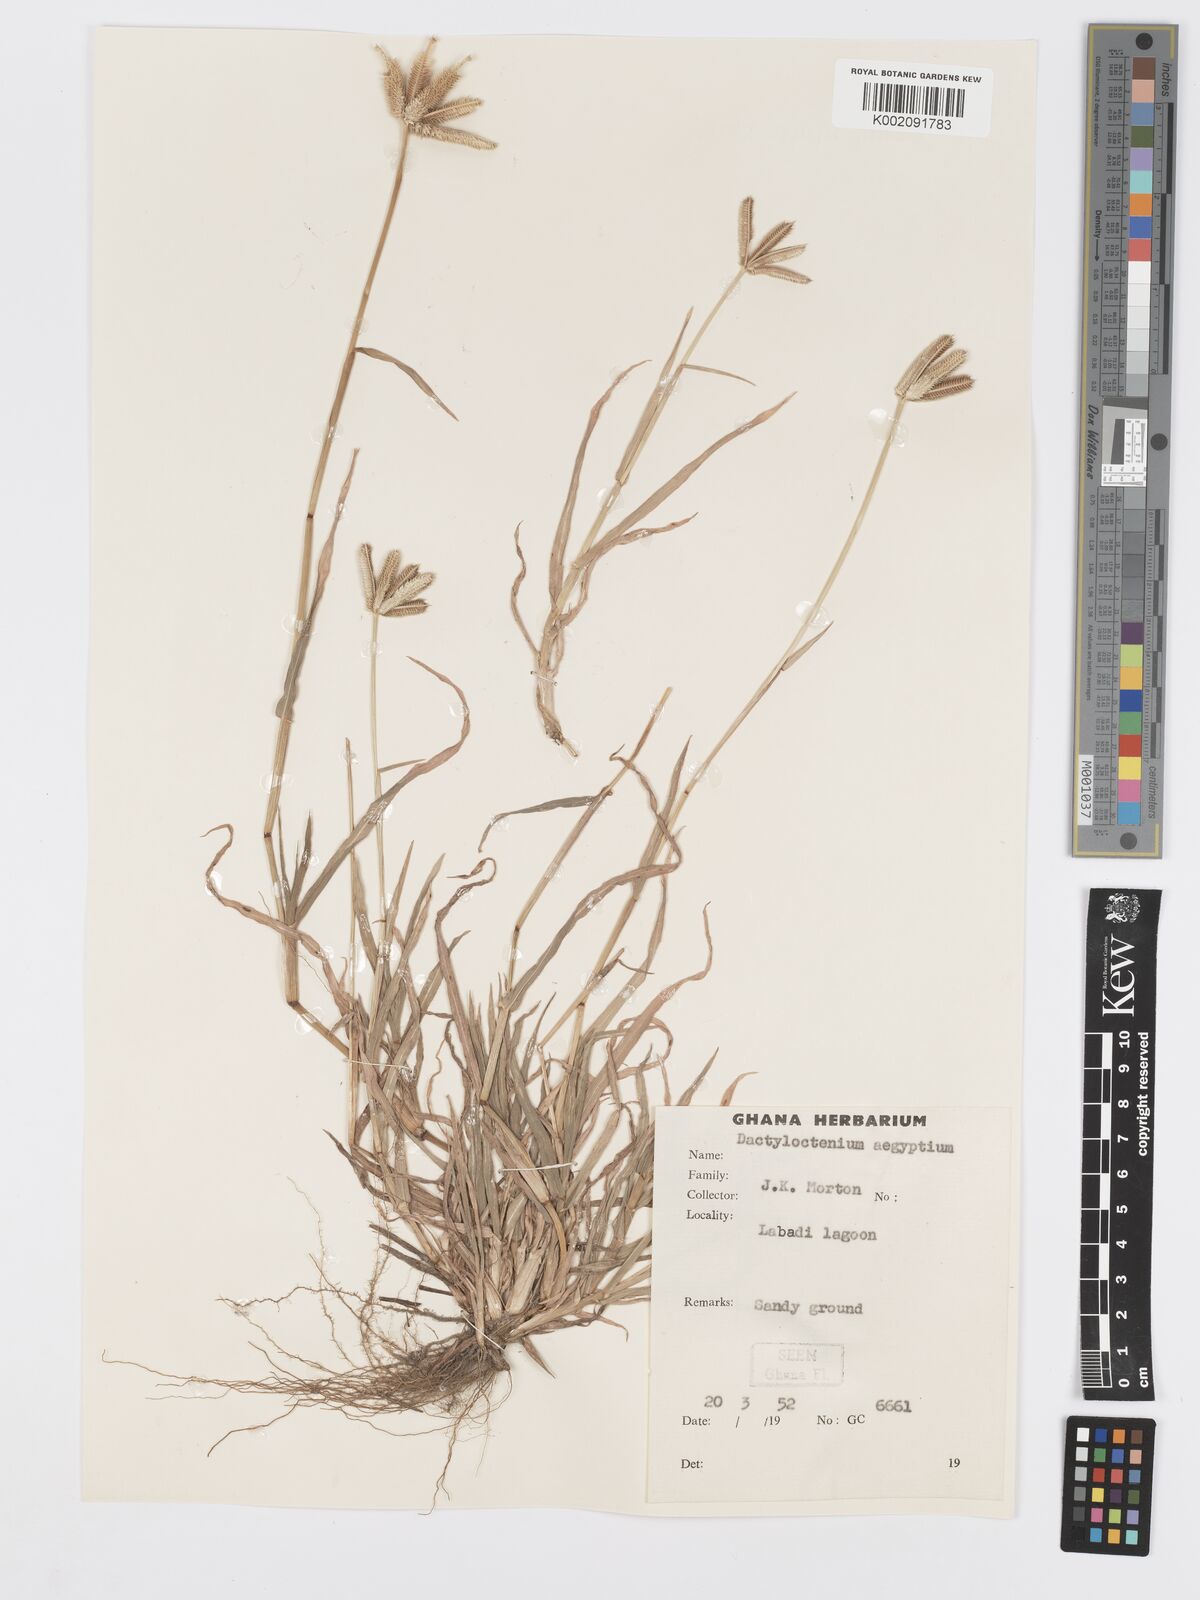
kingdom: Plantae
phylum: Tracheophyta
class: Liliopsida
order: Poales
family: Poaceae
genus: Dactyloctenium
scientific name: Dactyloctenium aegyptium
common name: Egyptian grass
